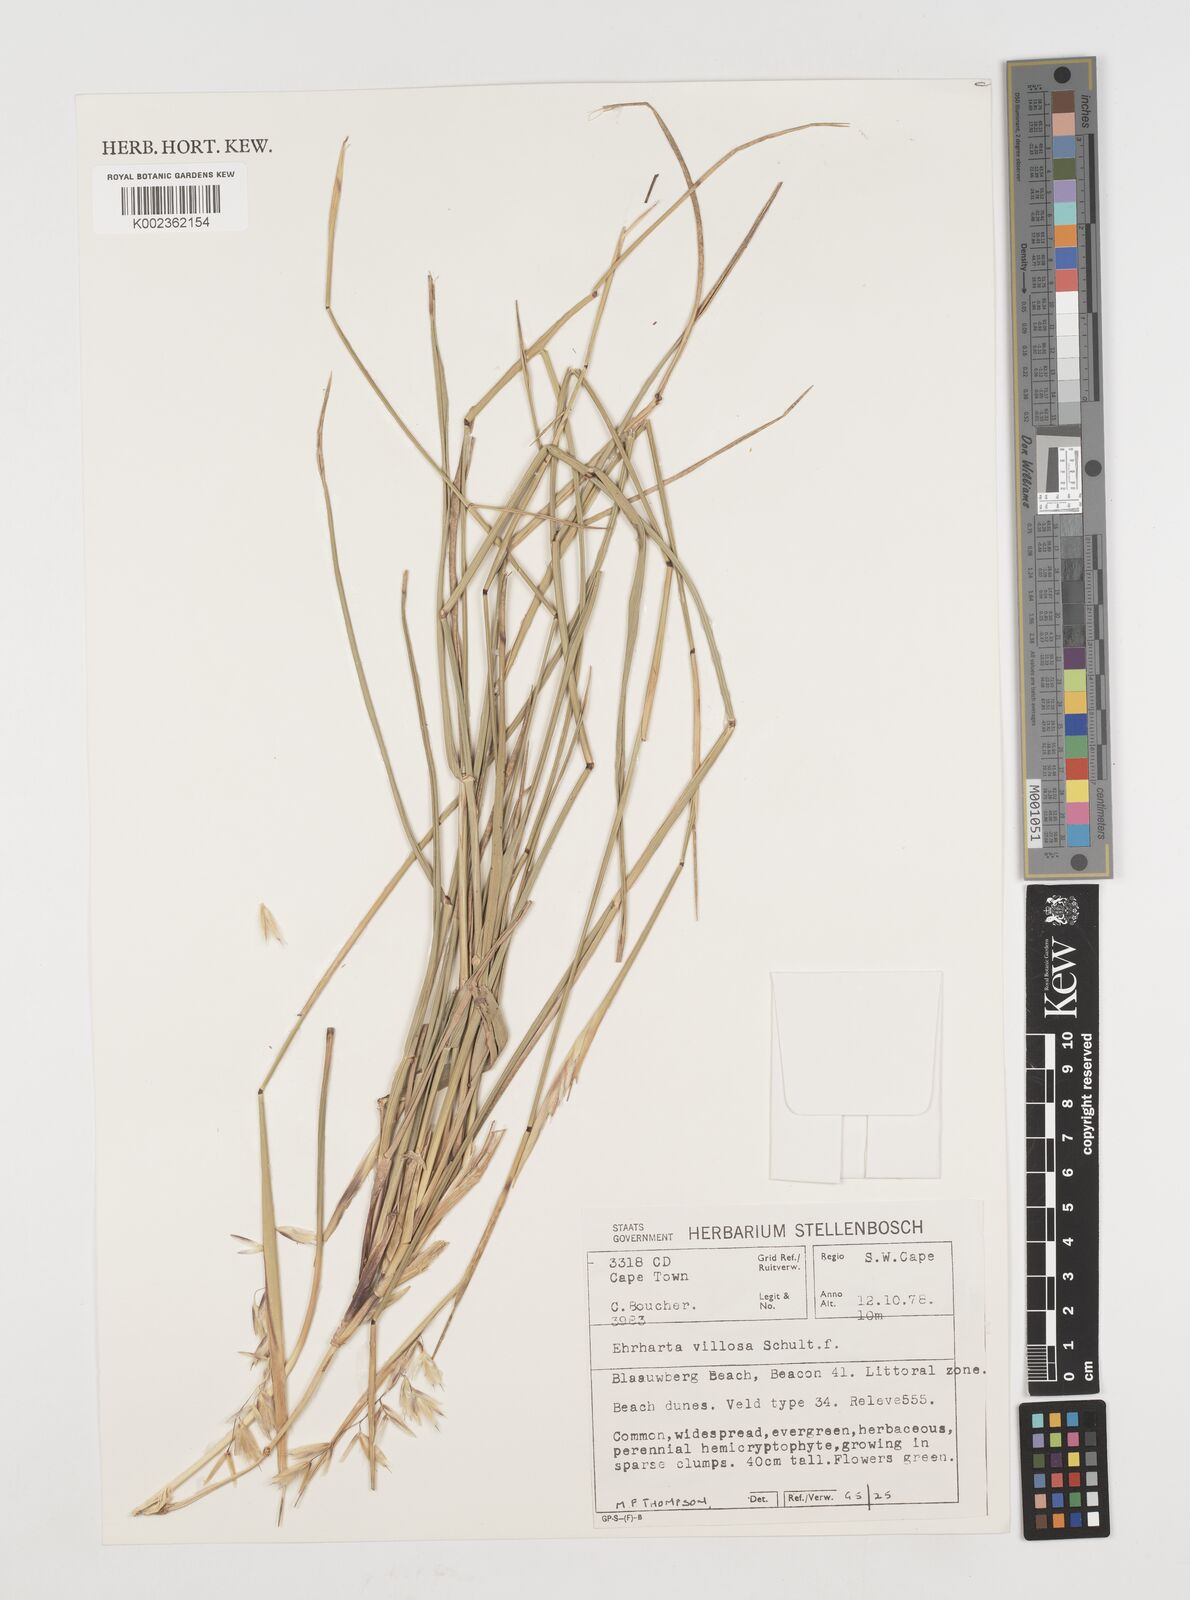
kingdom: Plantae
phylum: Tracheophyta
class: Liliopsida
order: Poales
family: Poaceae
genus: Ehrharta
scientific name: Ehrharta villosa
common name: Pyp grass
